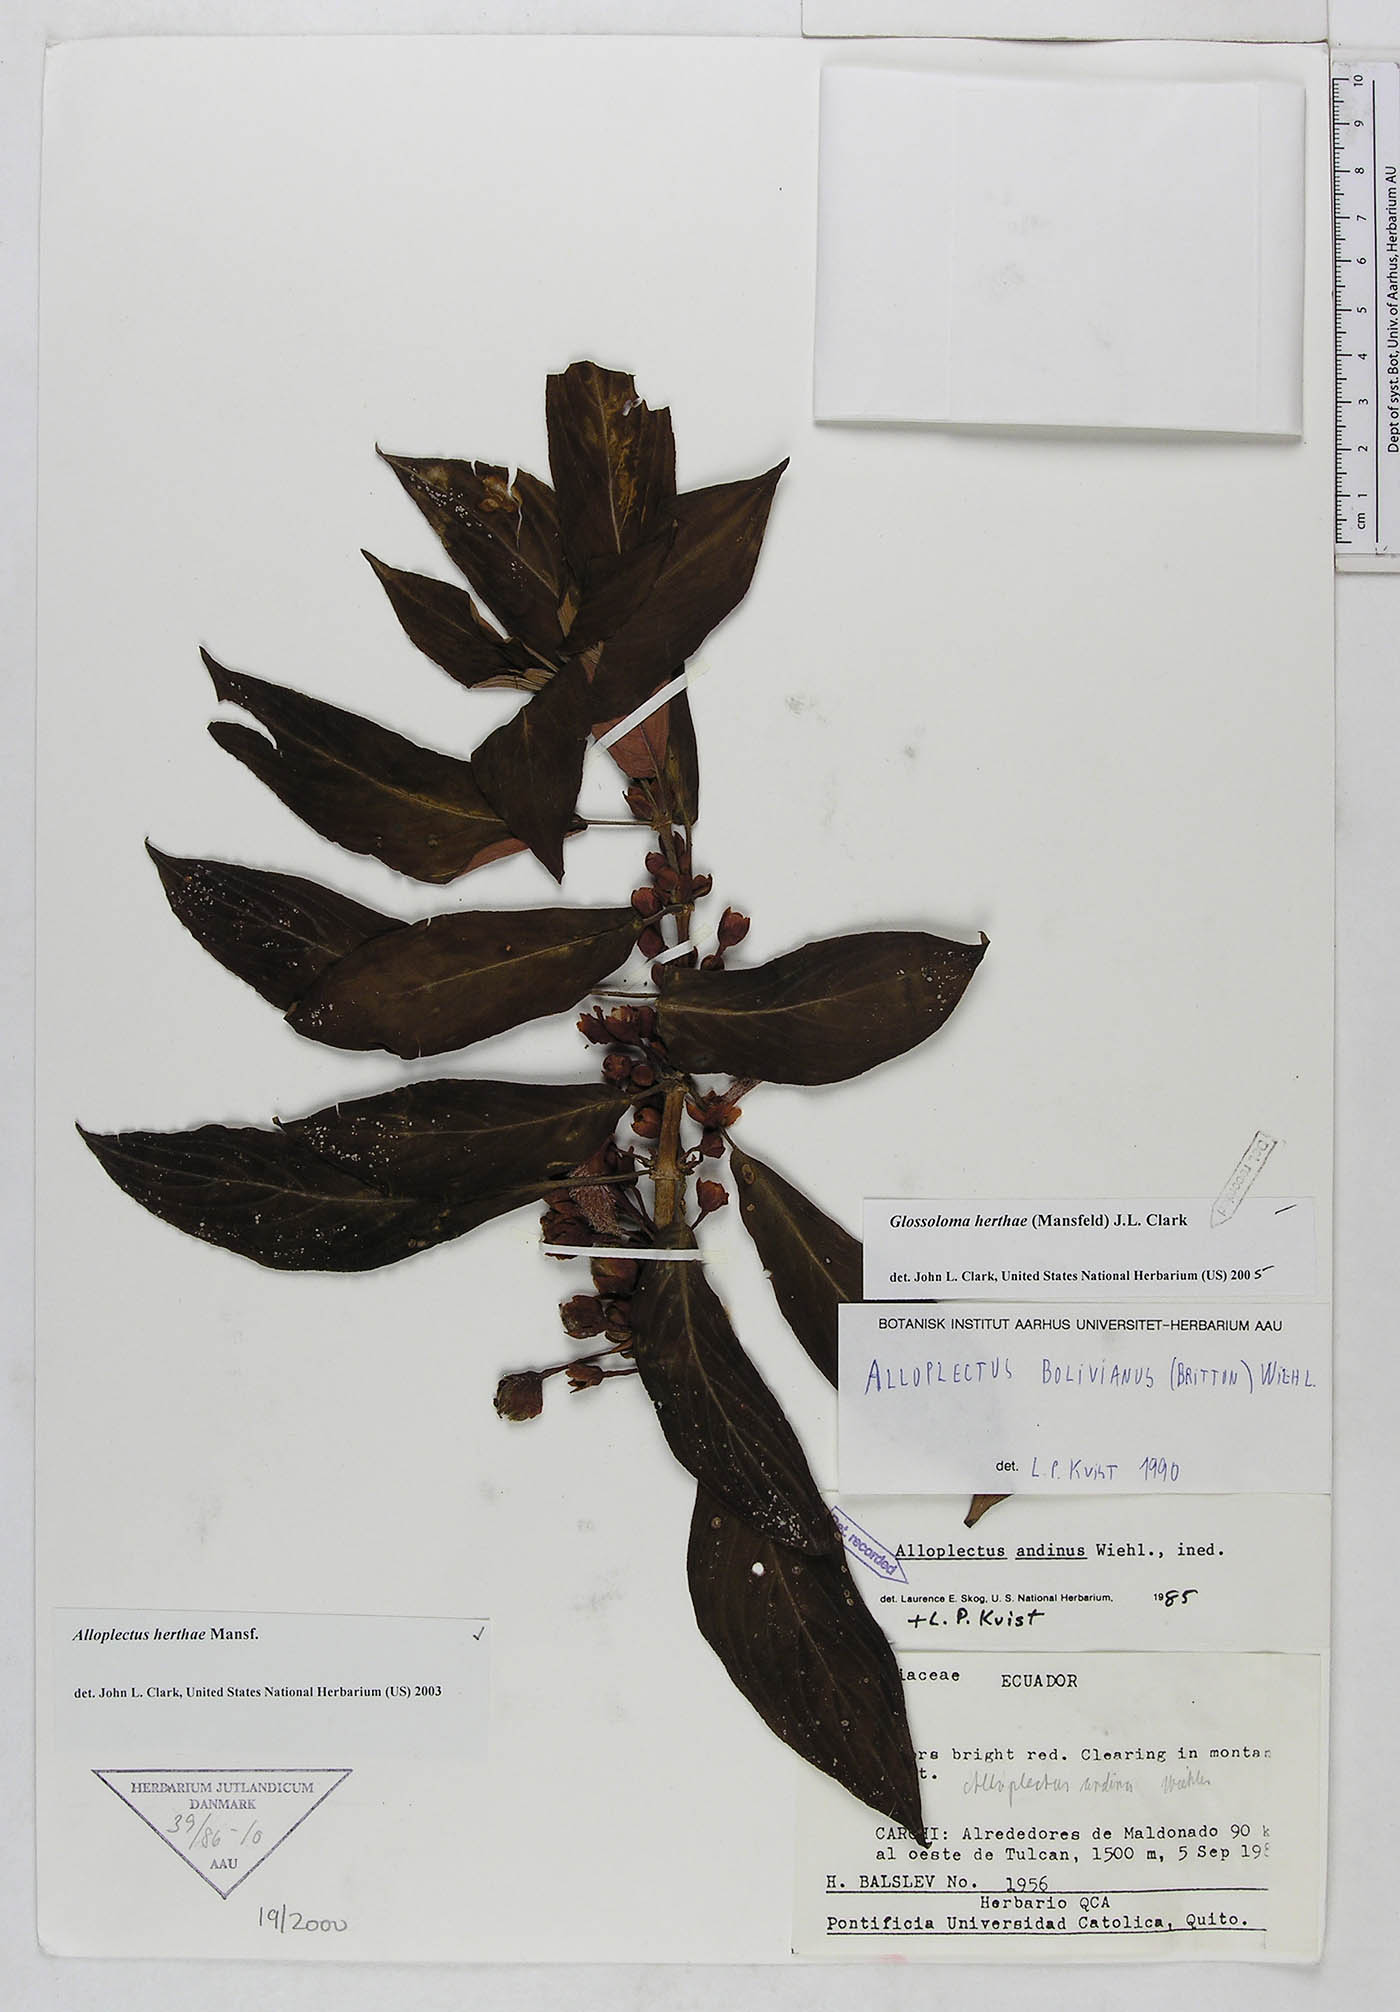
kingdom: Plantae
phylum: Tracheophyta
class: Magnoliopsida
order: Lamiales
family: Gesneriaceae
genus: Glossoloma
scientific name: Glossoloma herthae
